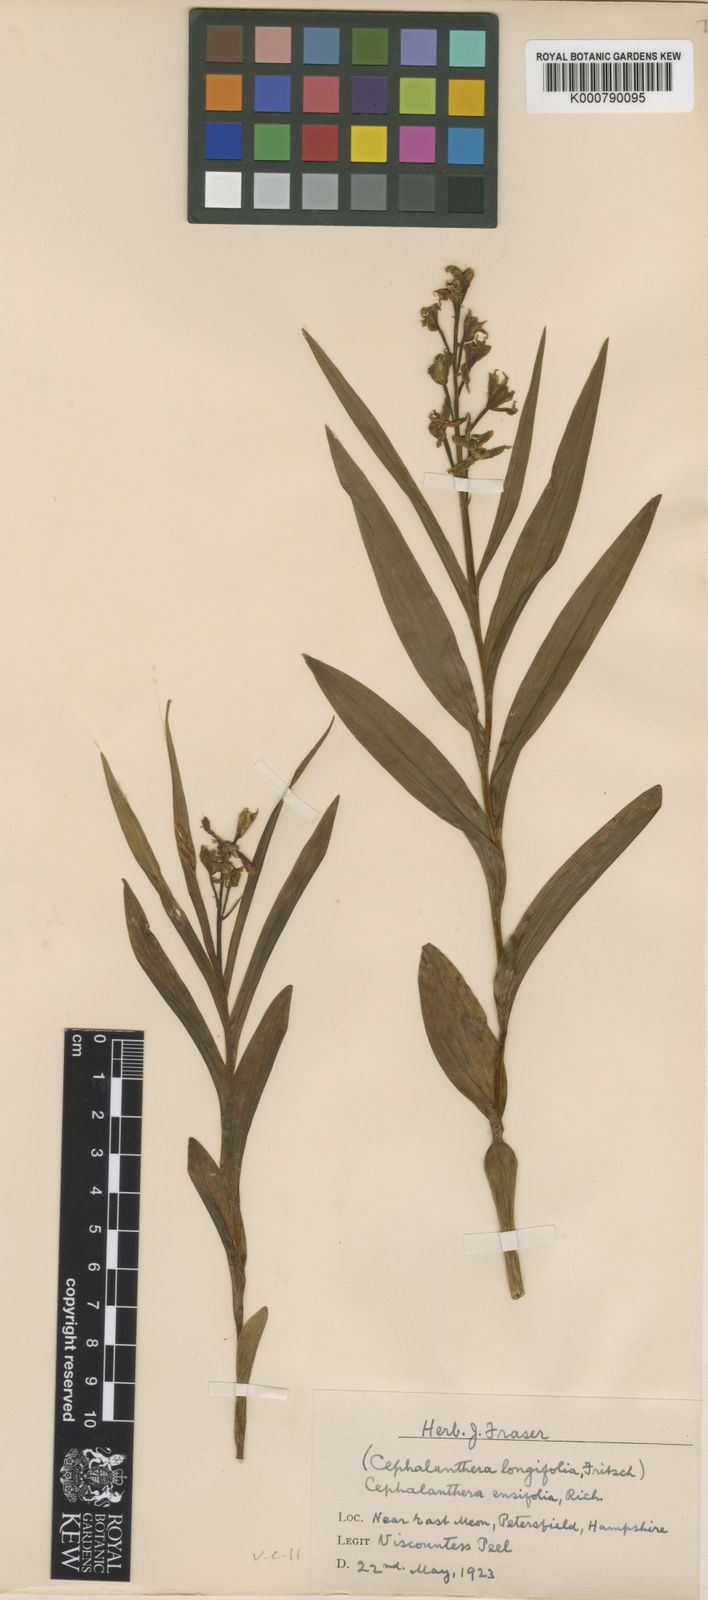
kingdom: Plantae
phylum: Tracheophyta
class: Liliopsida
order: Asparagales
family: Orchidaceae
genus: Cephalanthera
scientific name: Cephalanthera longifolia
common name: Narrow-leaved helleborine
